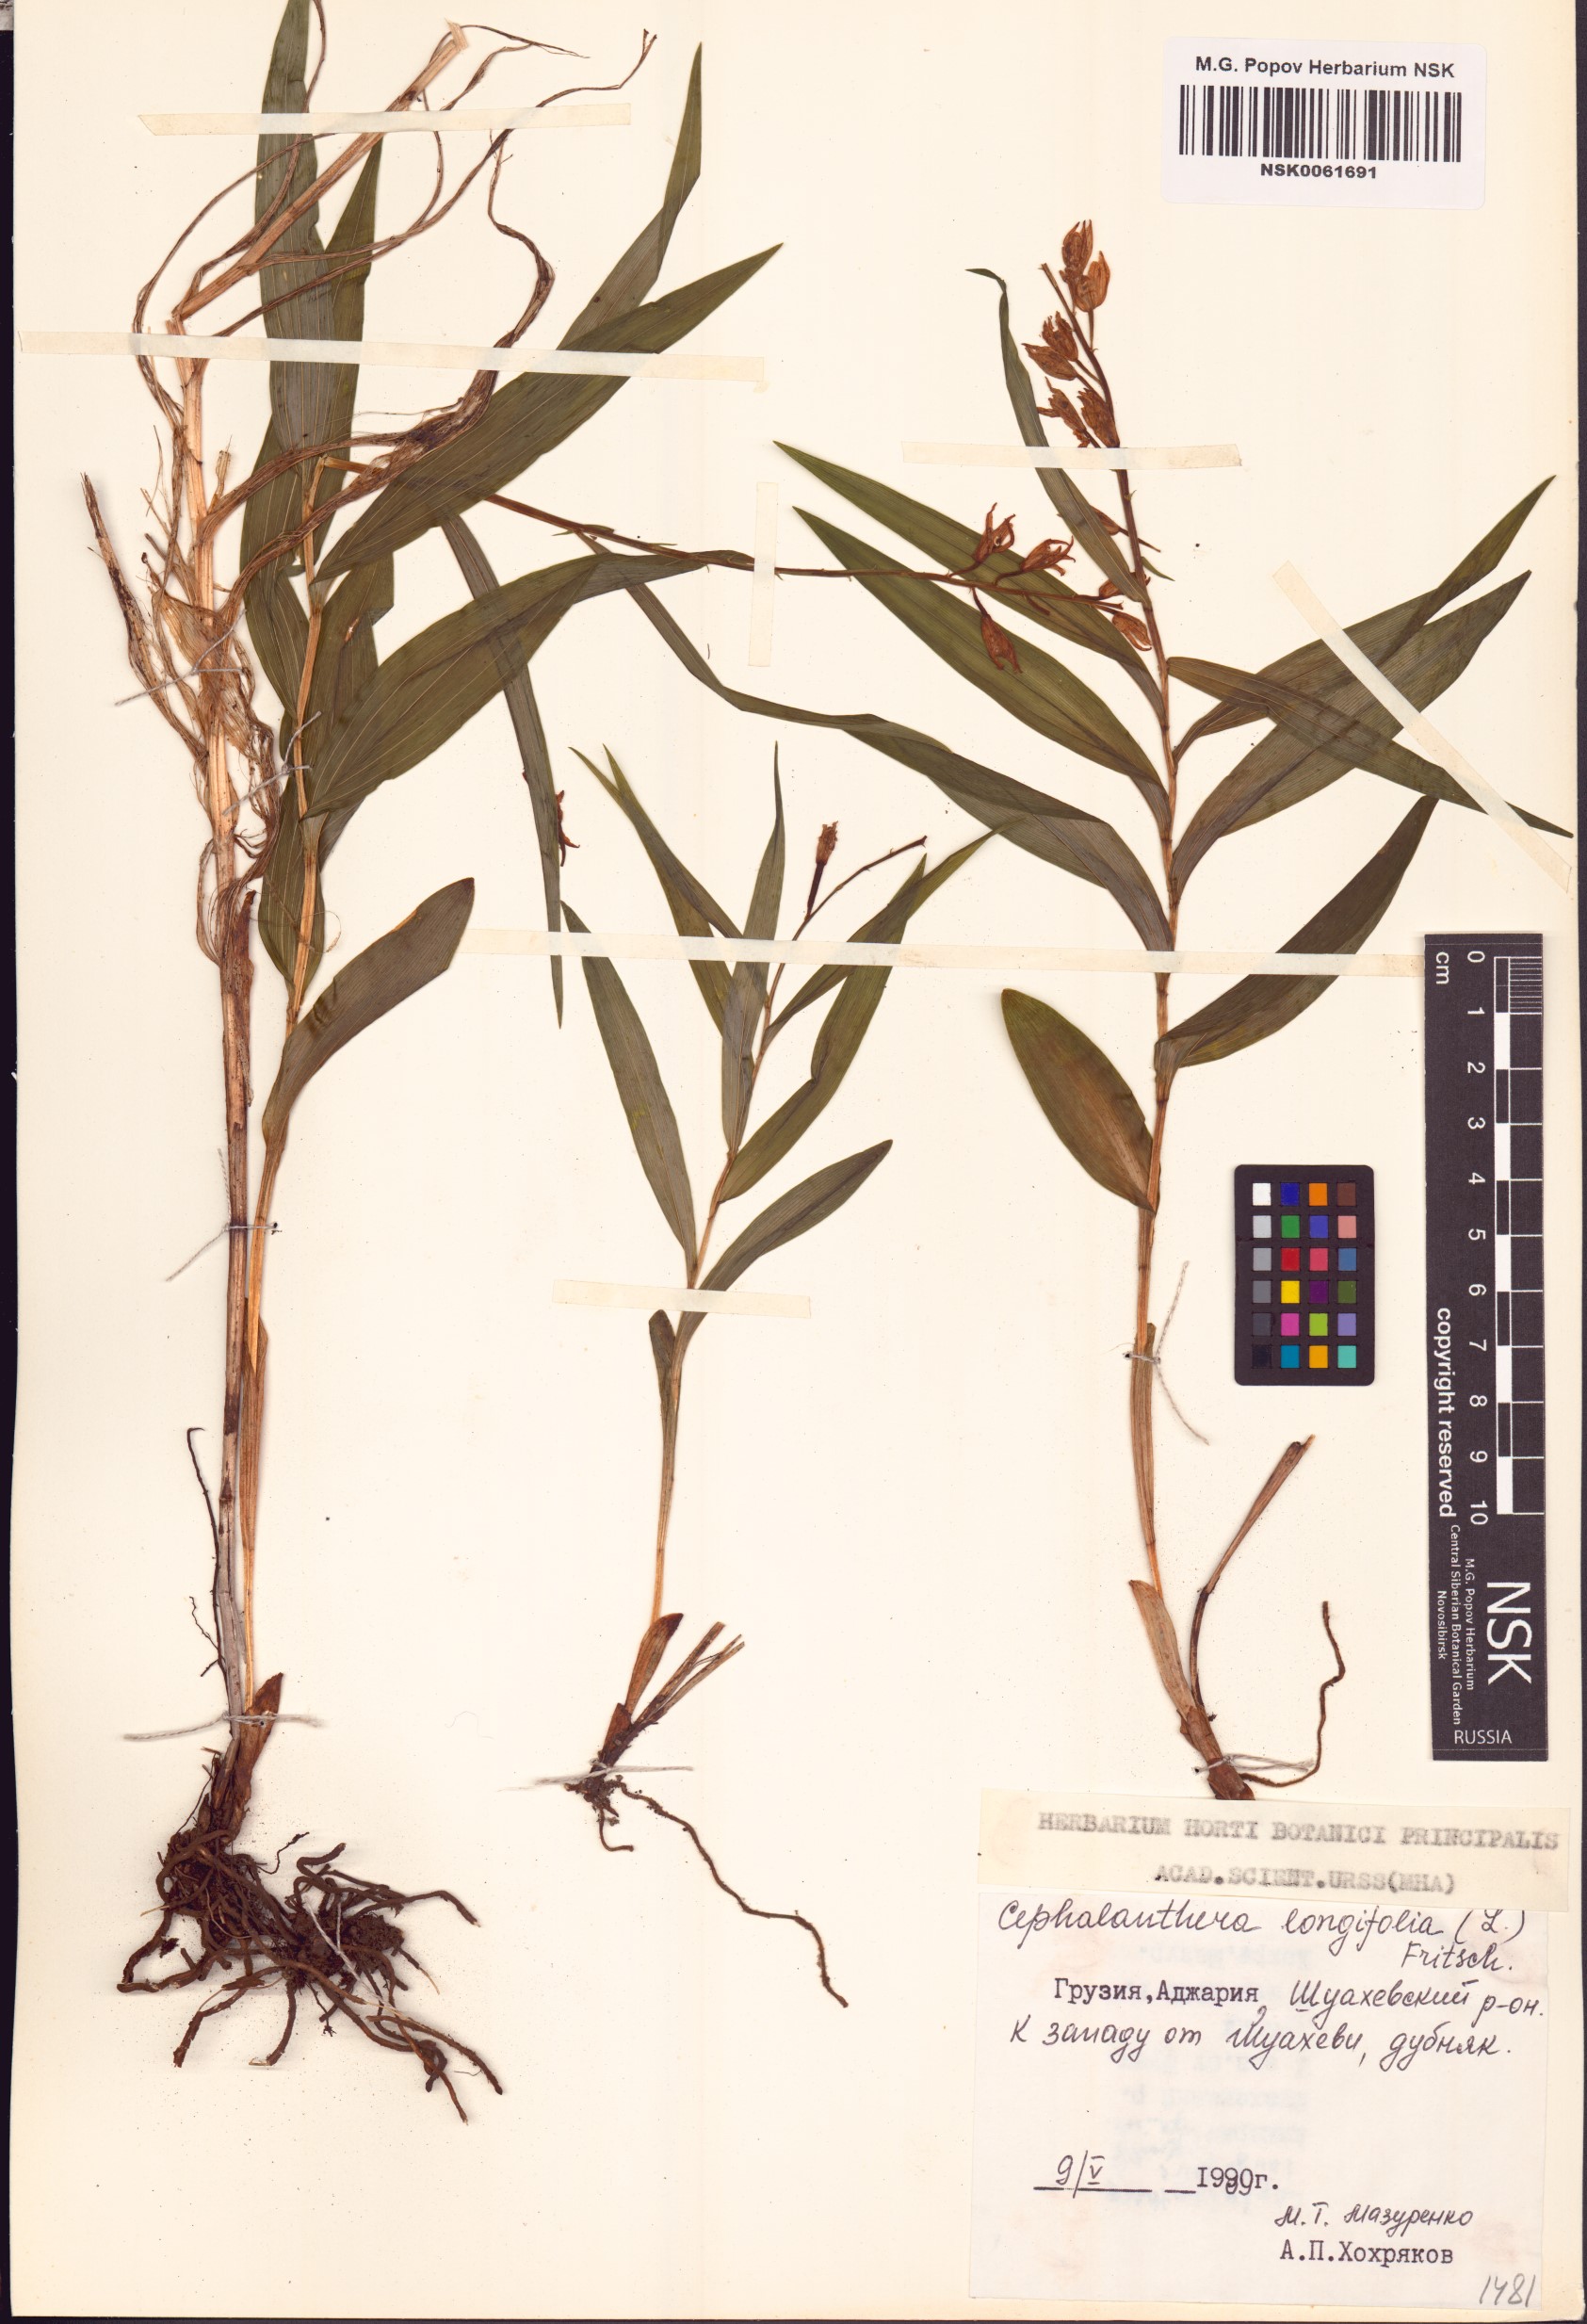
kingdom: Plantae
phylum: Tracheophyta
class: Liliopsida
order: Asparagales
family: Orchidaceae
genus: Cephalanthera
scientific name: Cephalanthera longifolia
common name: Narrow-leaved helleborine
